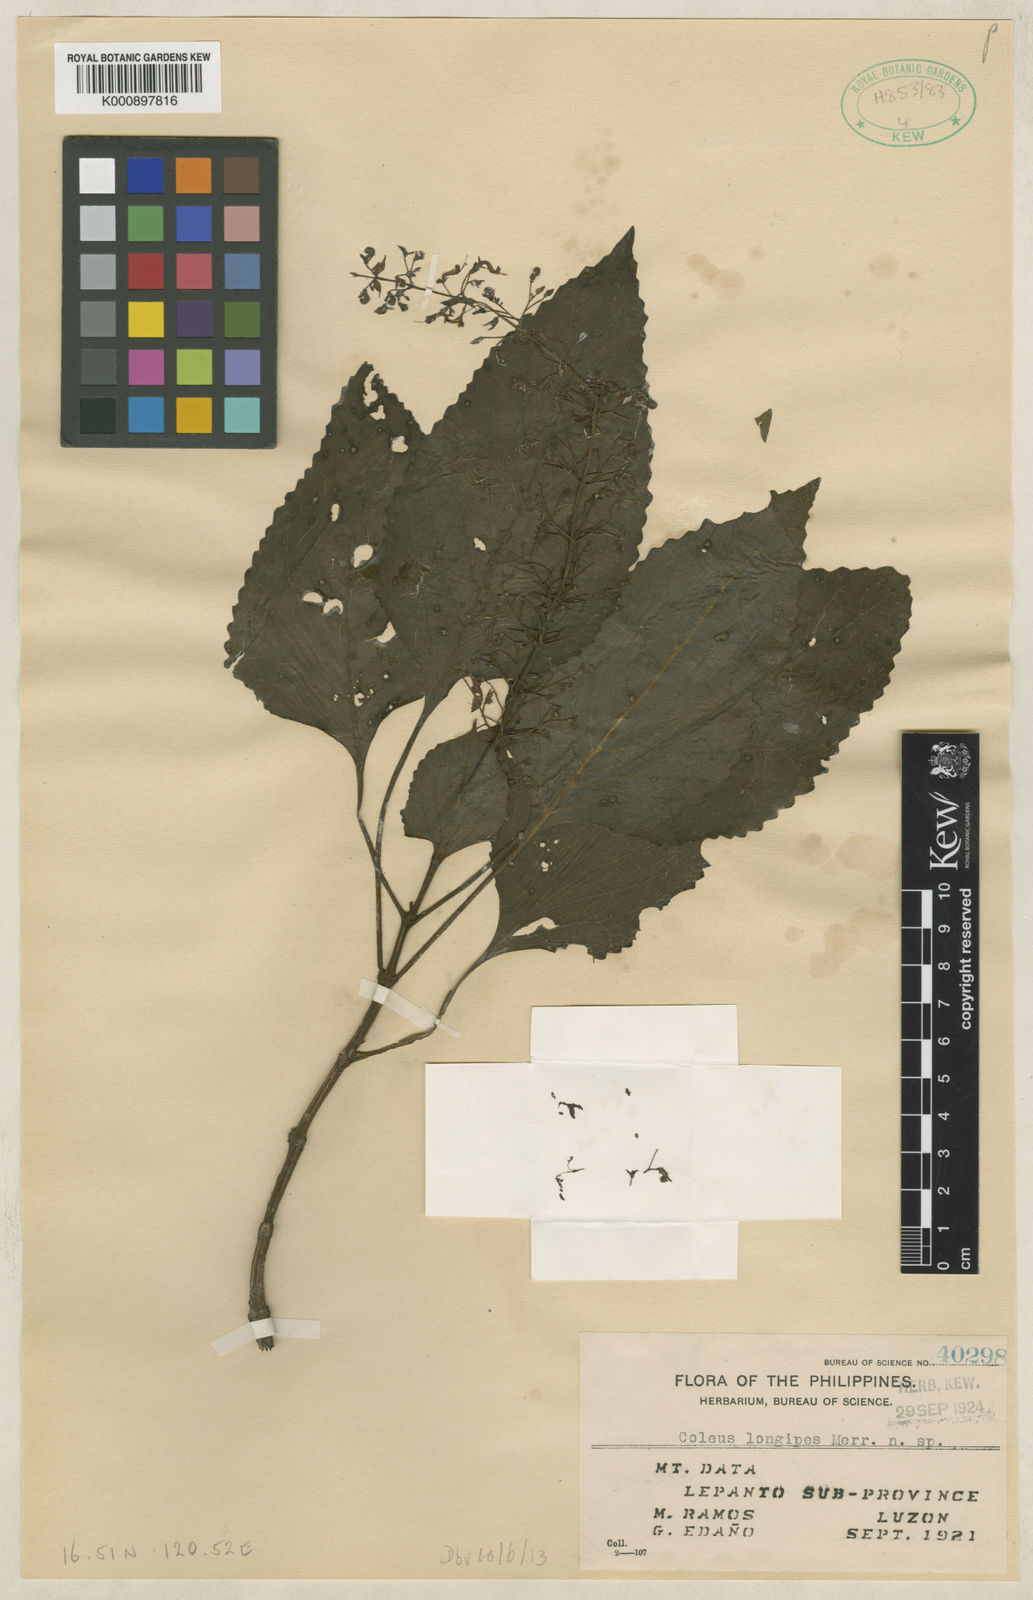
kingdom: Plantae
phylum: Tracheophyta
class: Magnoliopsida
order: Lamiales
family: Lamiaceae
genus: Coleus
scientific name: Coleus
